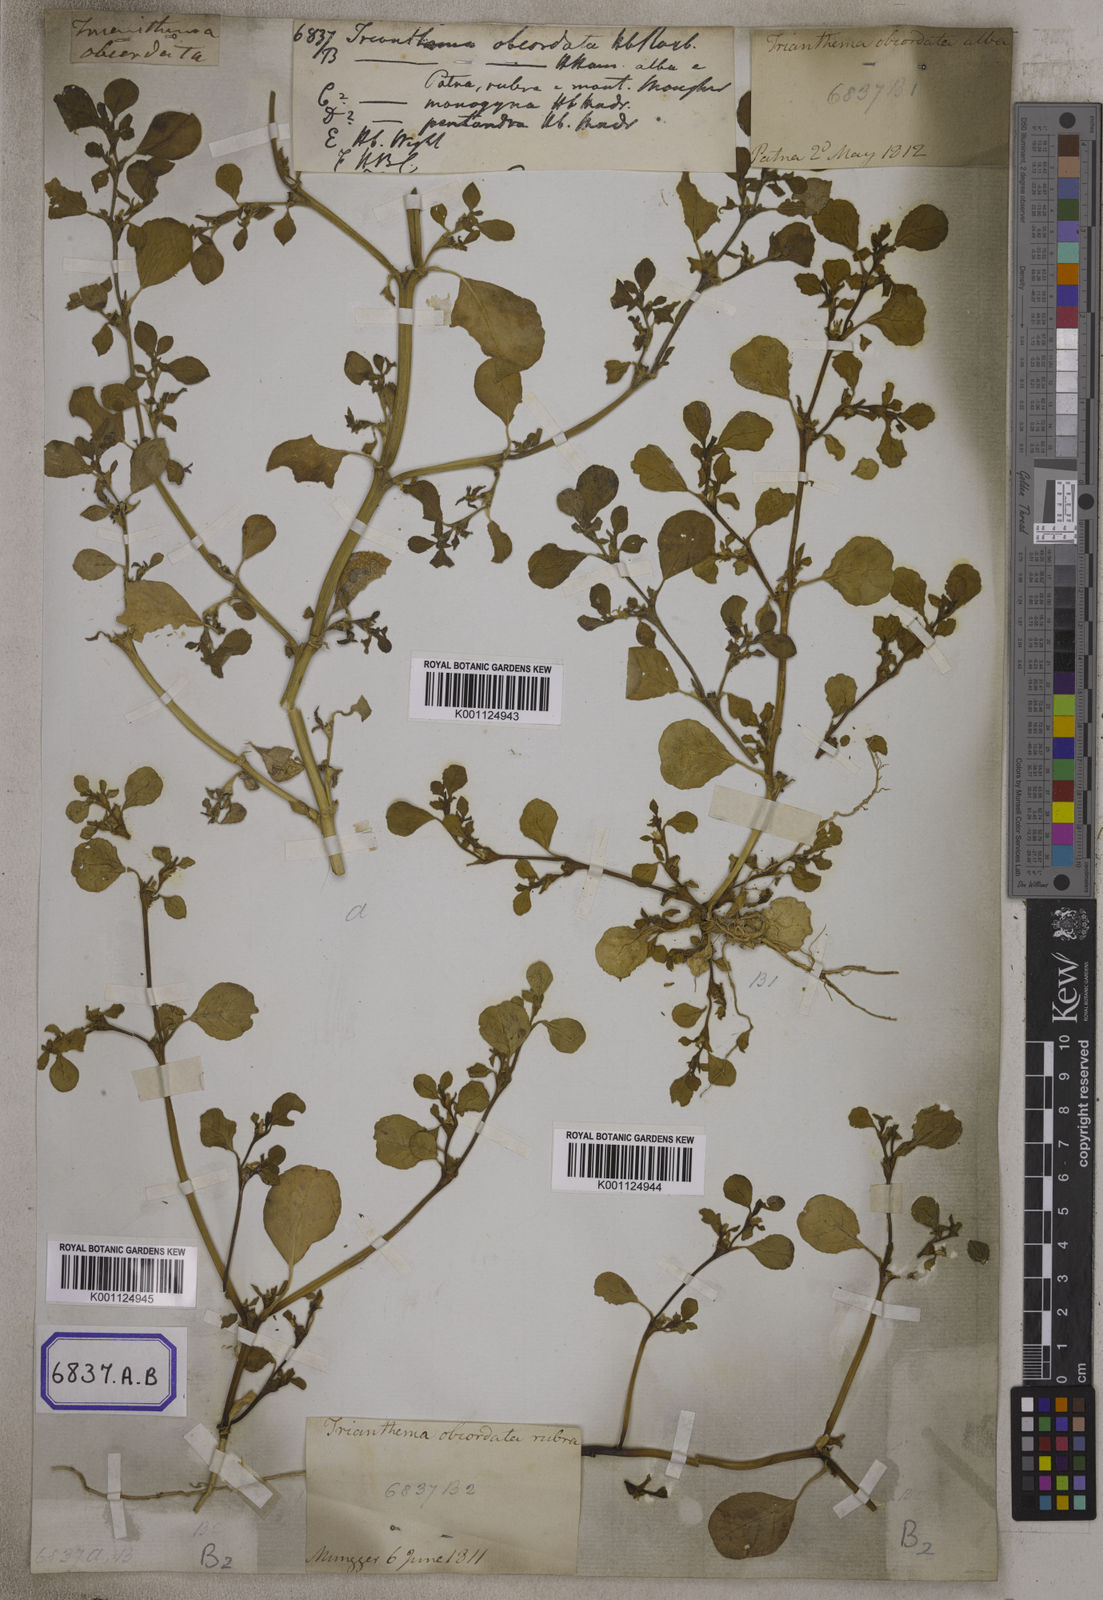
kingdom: Plantae
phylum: Tracheophyta
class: Magnoliopsida
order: Caryophyllales
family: Aizoaceae
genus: Trianthema
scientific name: Trianthema
